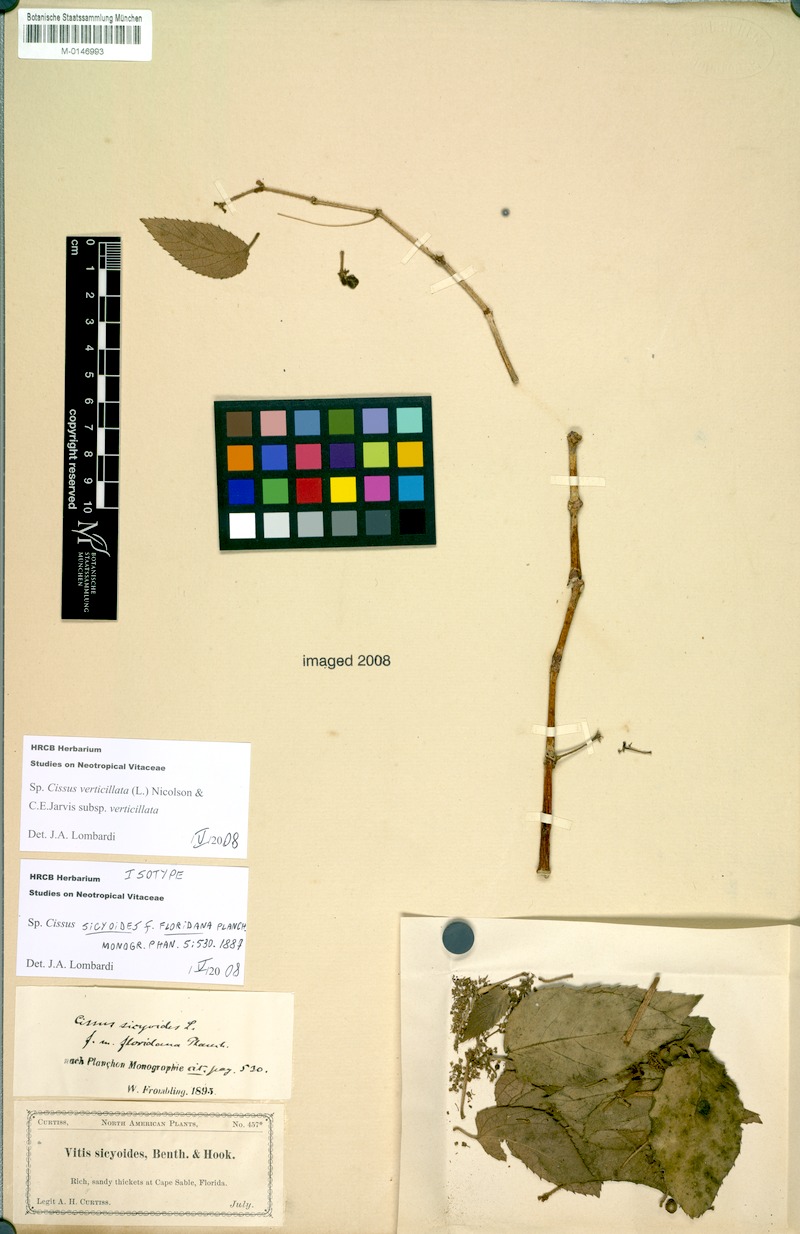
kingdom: Plantae
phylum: Tracheophyta
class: Magnoliopsida
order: Vitales
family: Vitaceae
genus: Cissus
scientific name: Cissus verticillata
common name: Princess vine
